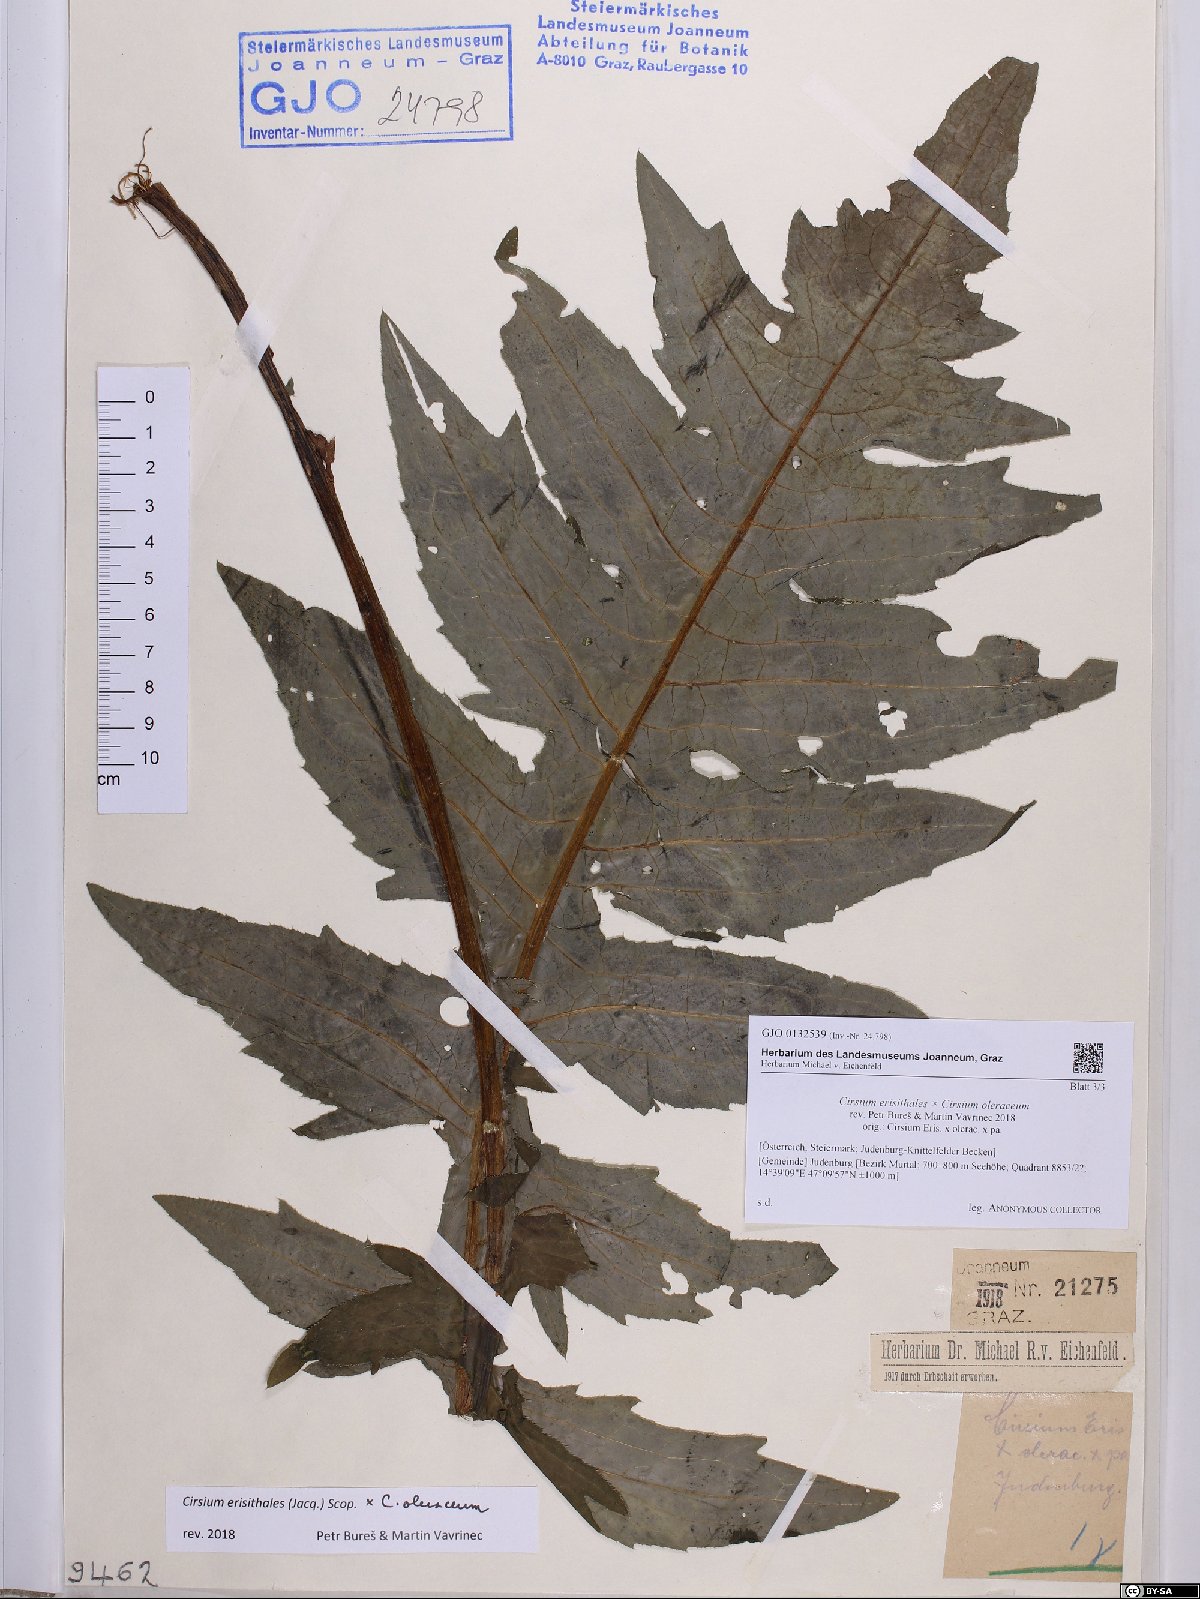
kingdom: Plantae
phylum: Tracheophyta
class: Magnoliopsida
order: Asterales
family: Asteraceae
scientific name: Asteraceae
